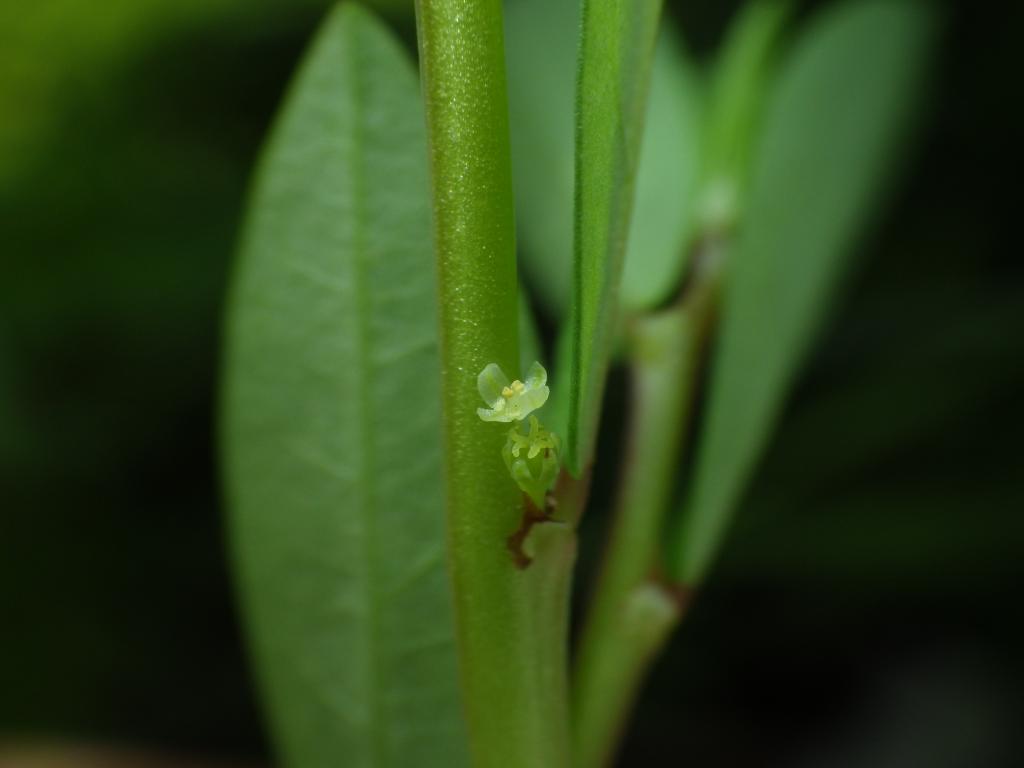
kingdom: Plantae
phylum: Tracheophyta
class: Magnoliopsida
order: Malpighiales
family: Phyllanthaceae
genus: Phyllanthus
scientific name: Phyllanthus ussuriensis
